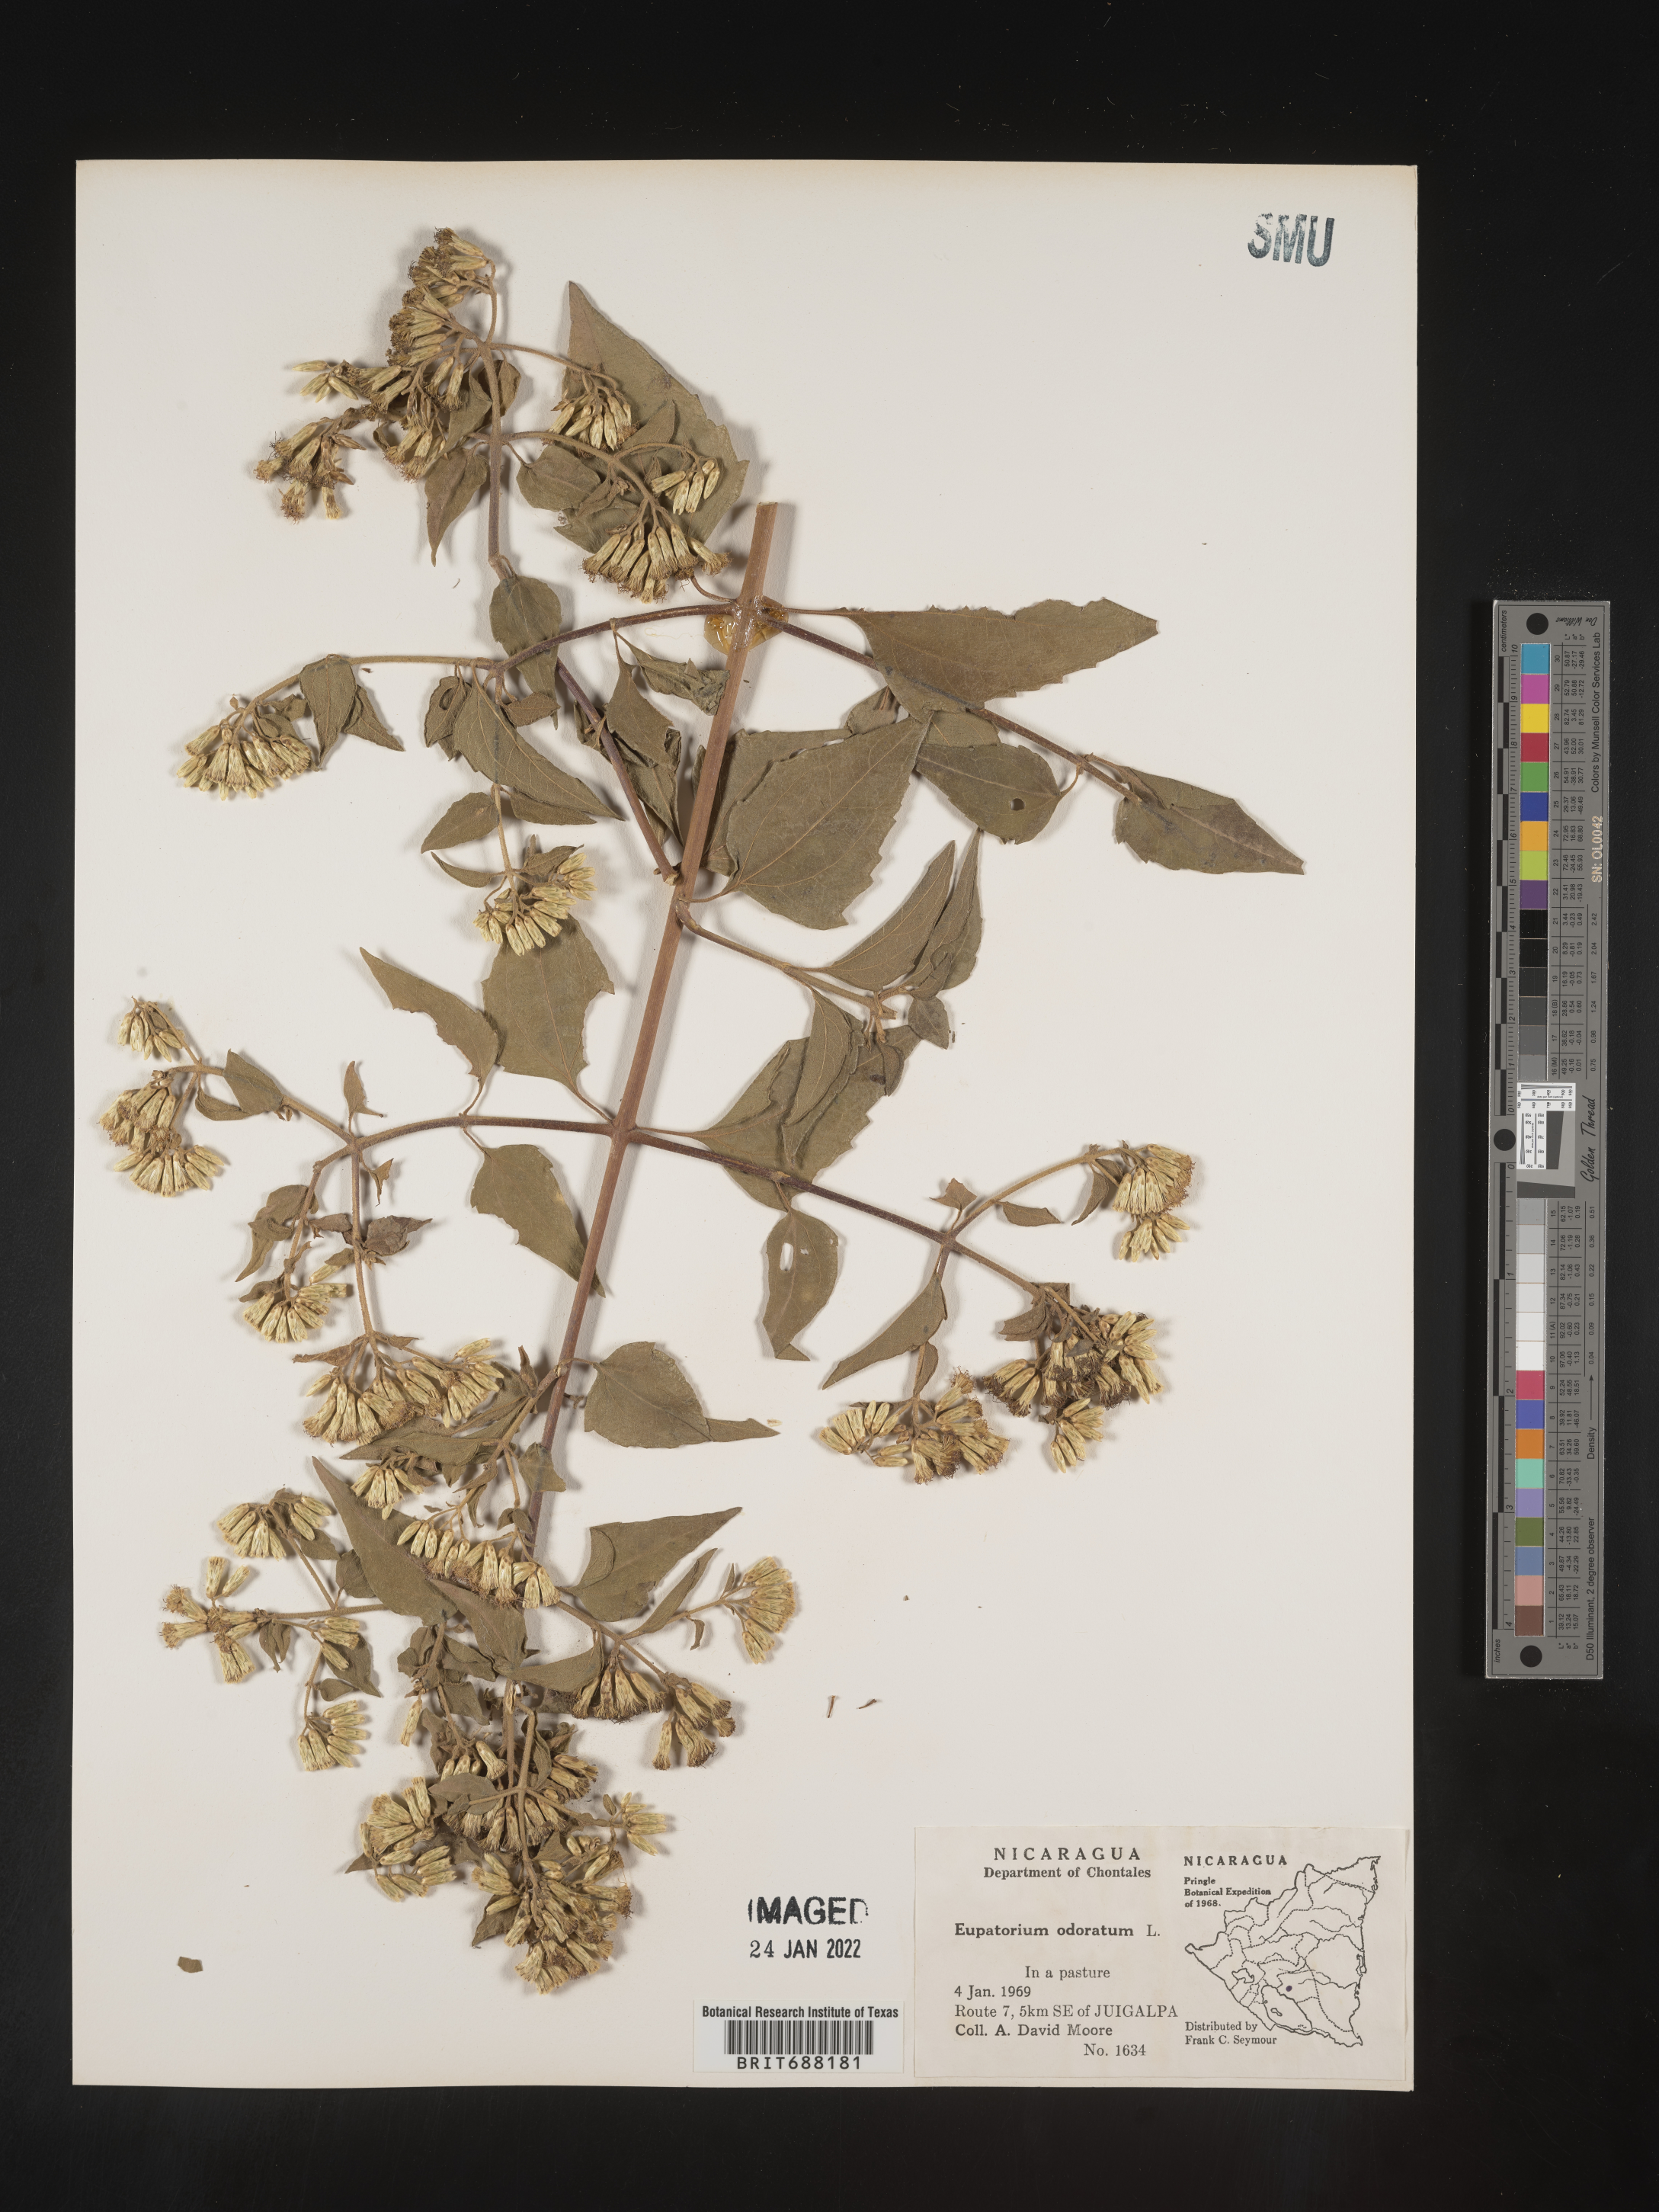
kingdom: Plantae
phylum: Tracheophyta
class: Magnoliopsida
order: Asterales
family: Asteraceae
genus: Chromolaena
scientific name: Chromolaena odorata
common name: Siamweed
